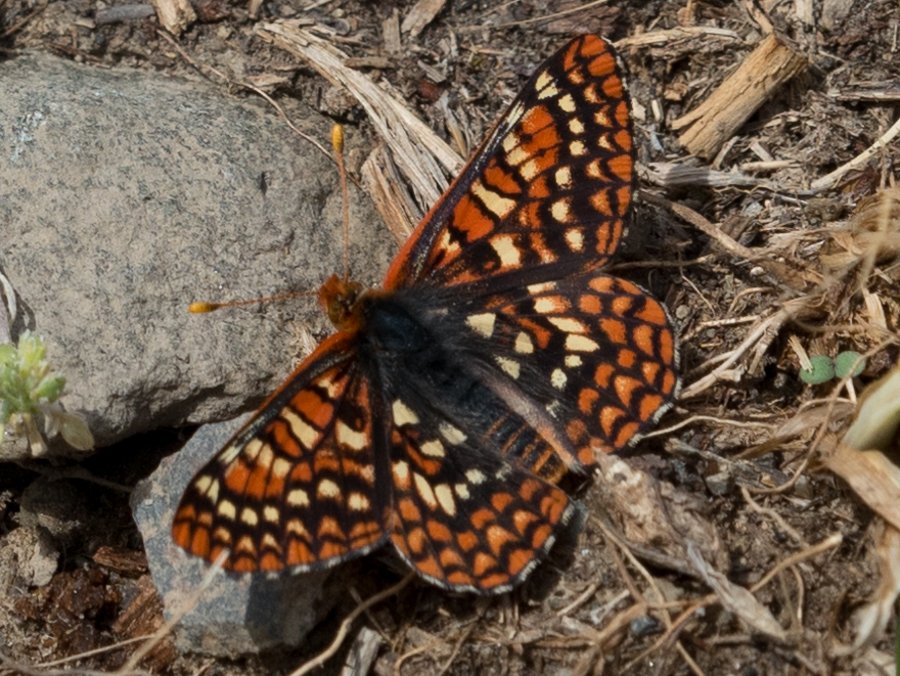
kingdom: Animalia
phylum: Arthropoda
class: Insecta
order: Lepidoptera
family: Nymphalidae
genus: Occidryas
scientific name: Occidryas anicia
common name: Anicia Checkerspot
